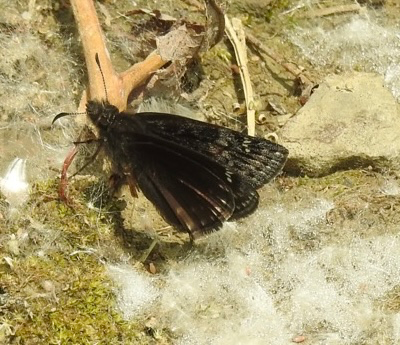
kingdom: Animalia
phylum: Arthropoda
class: Insecta
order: Lepidoptera
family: Hesperiidae
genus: Gesta
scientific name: Gesta
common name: Wild Indigo Duskywing
